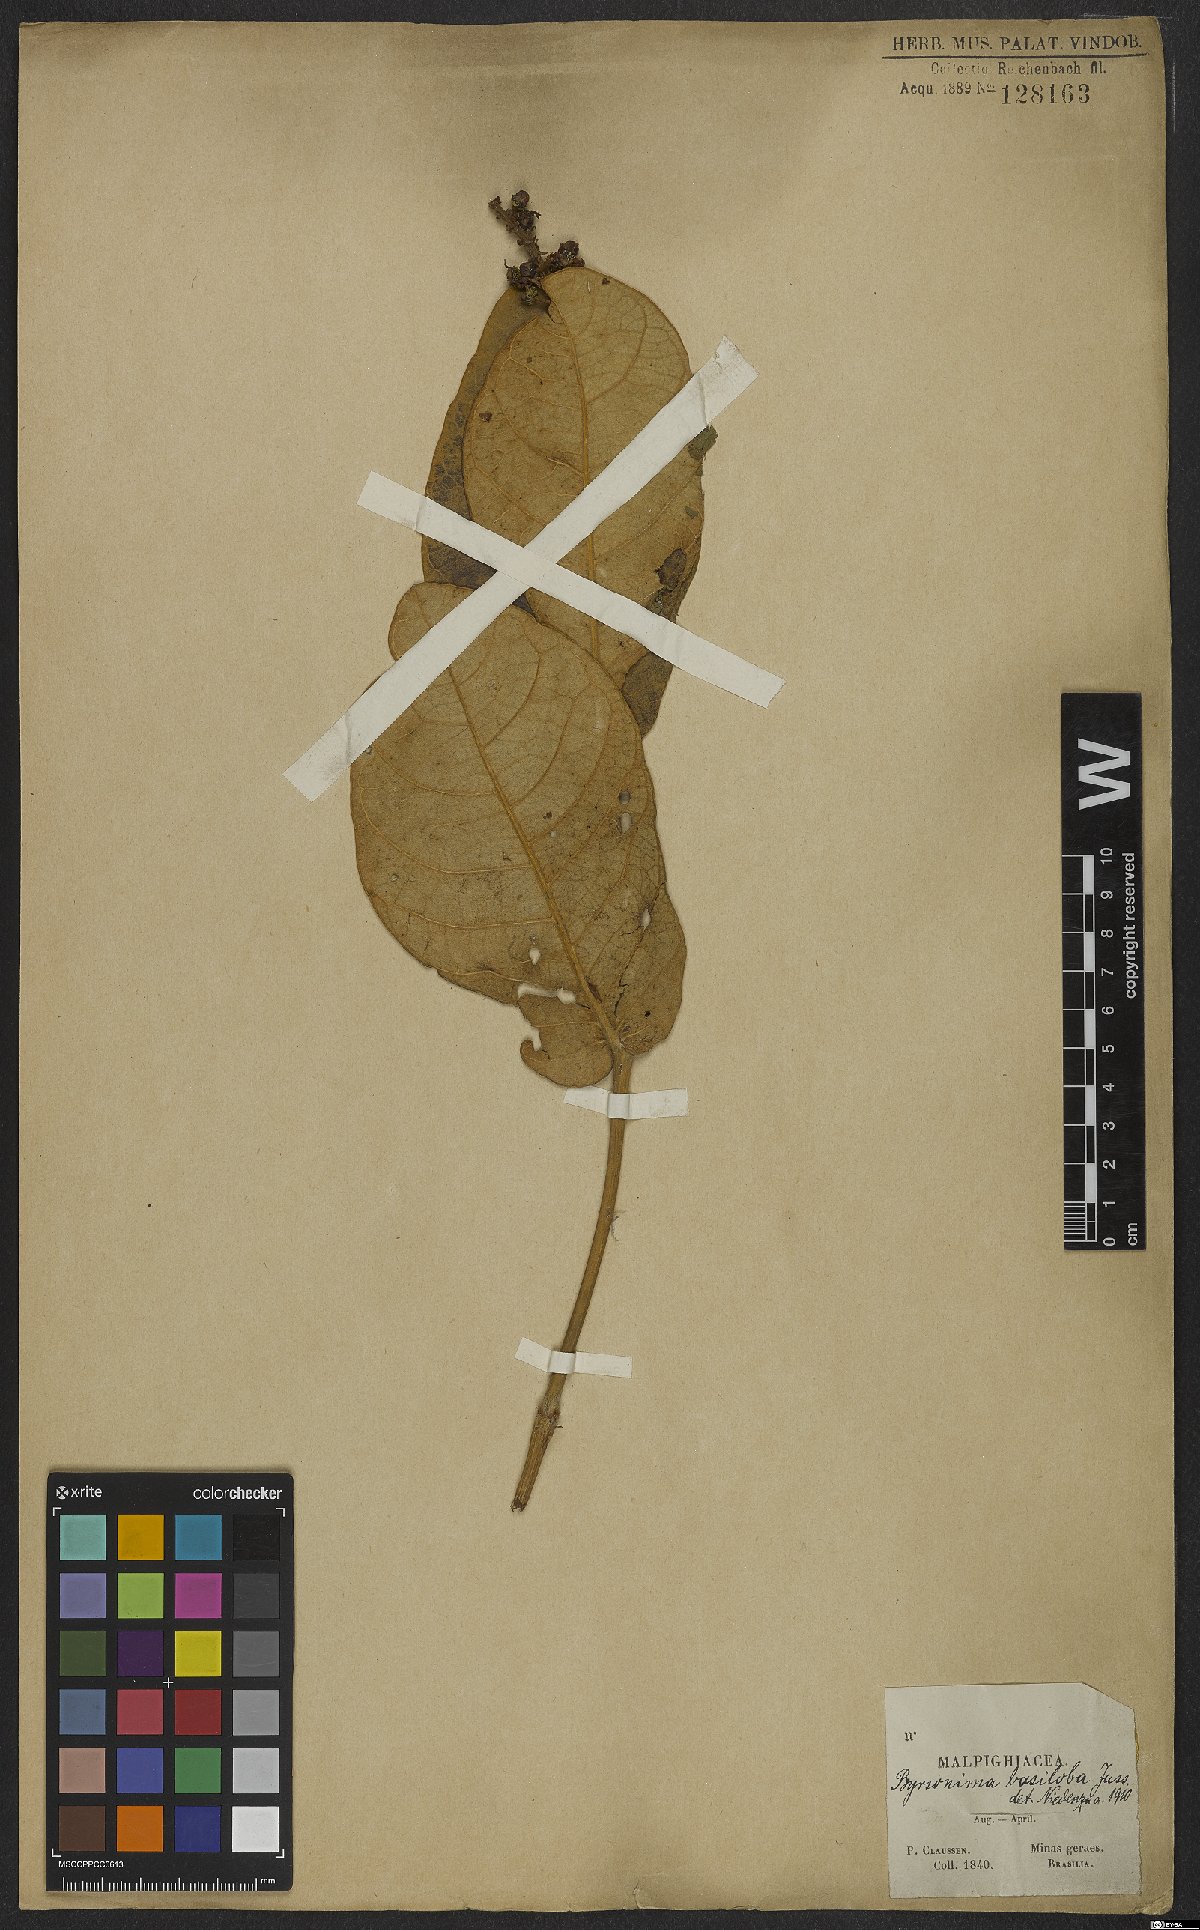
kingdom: Plantae
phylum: Tracheophyta
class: Magnoliopsida
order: Malpighiales
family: Malpighiaceae
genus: Byrsonima
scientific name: Byrsonima basiloba
